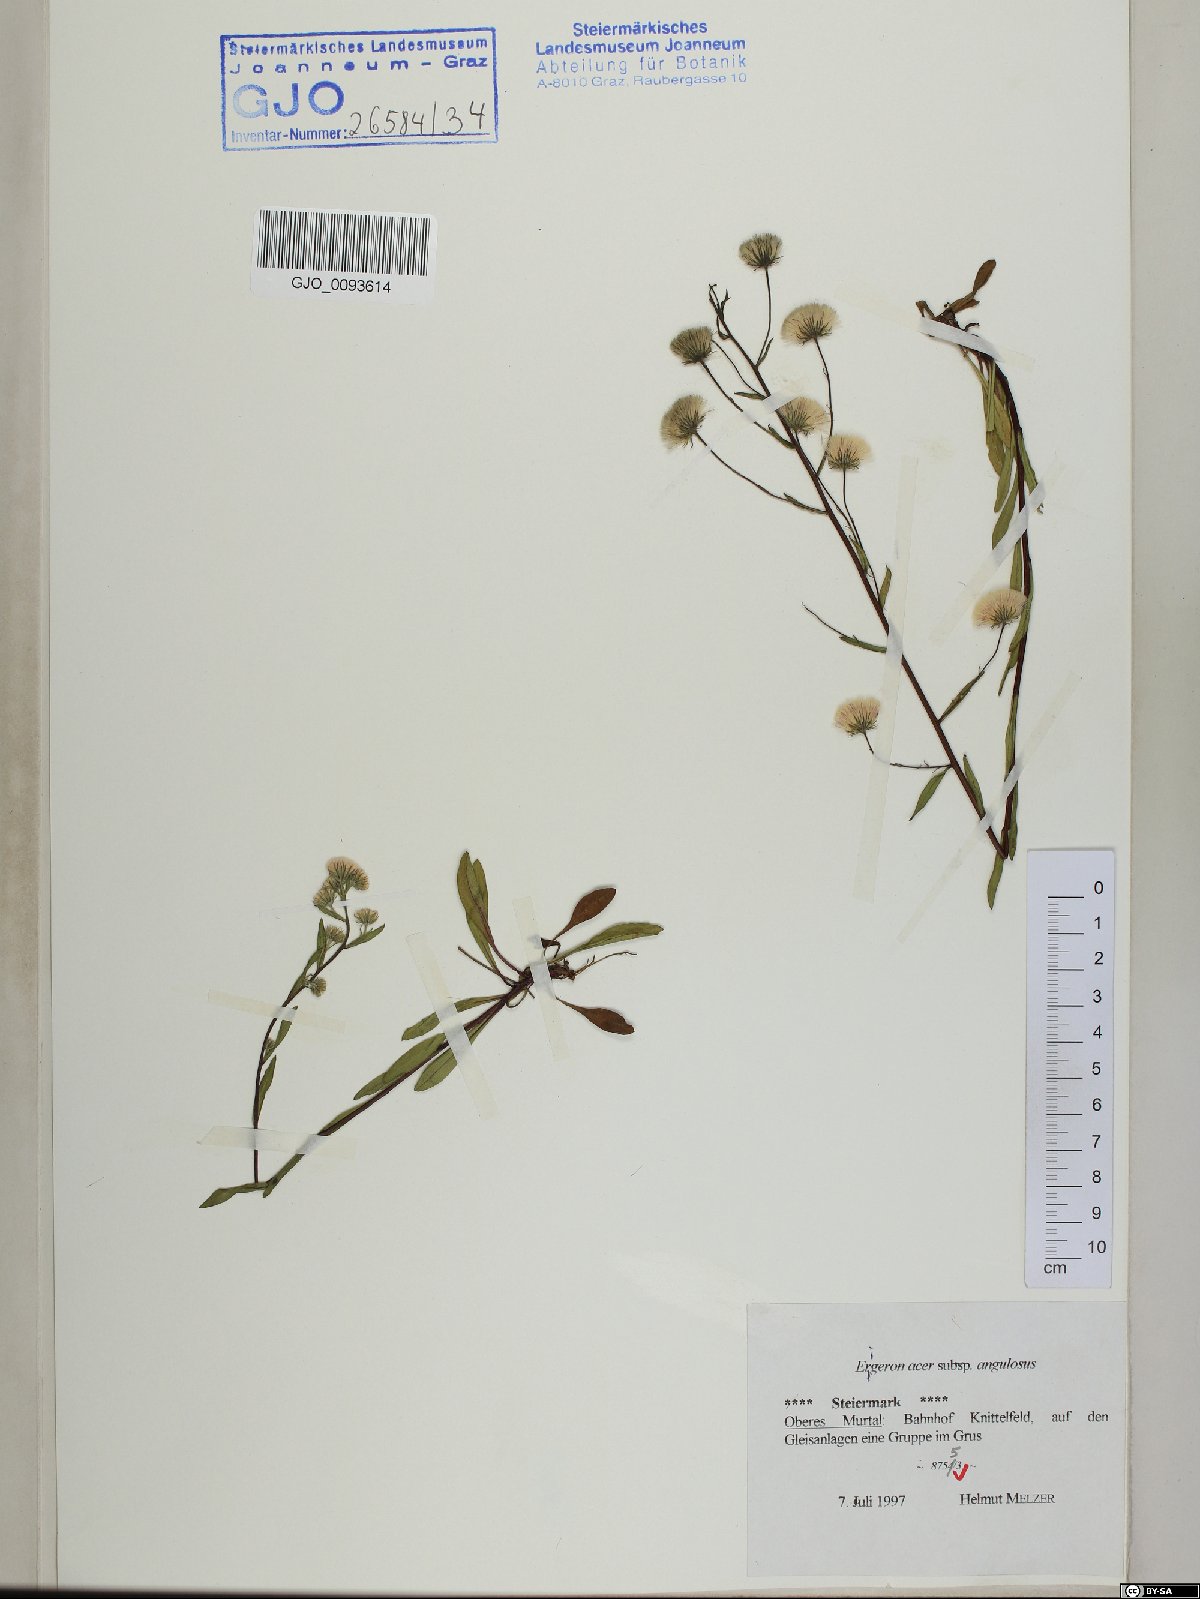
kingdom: Plantae
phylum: Tracheophyta
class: Magnoliopsida
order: Asterales
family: Asteraceae
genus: Erigeron
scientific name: Erigeron angulosus
